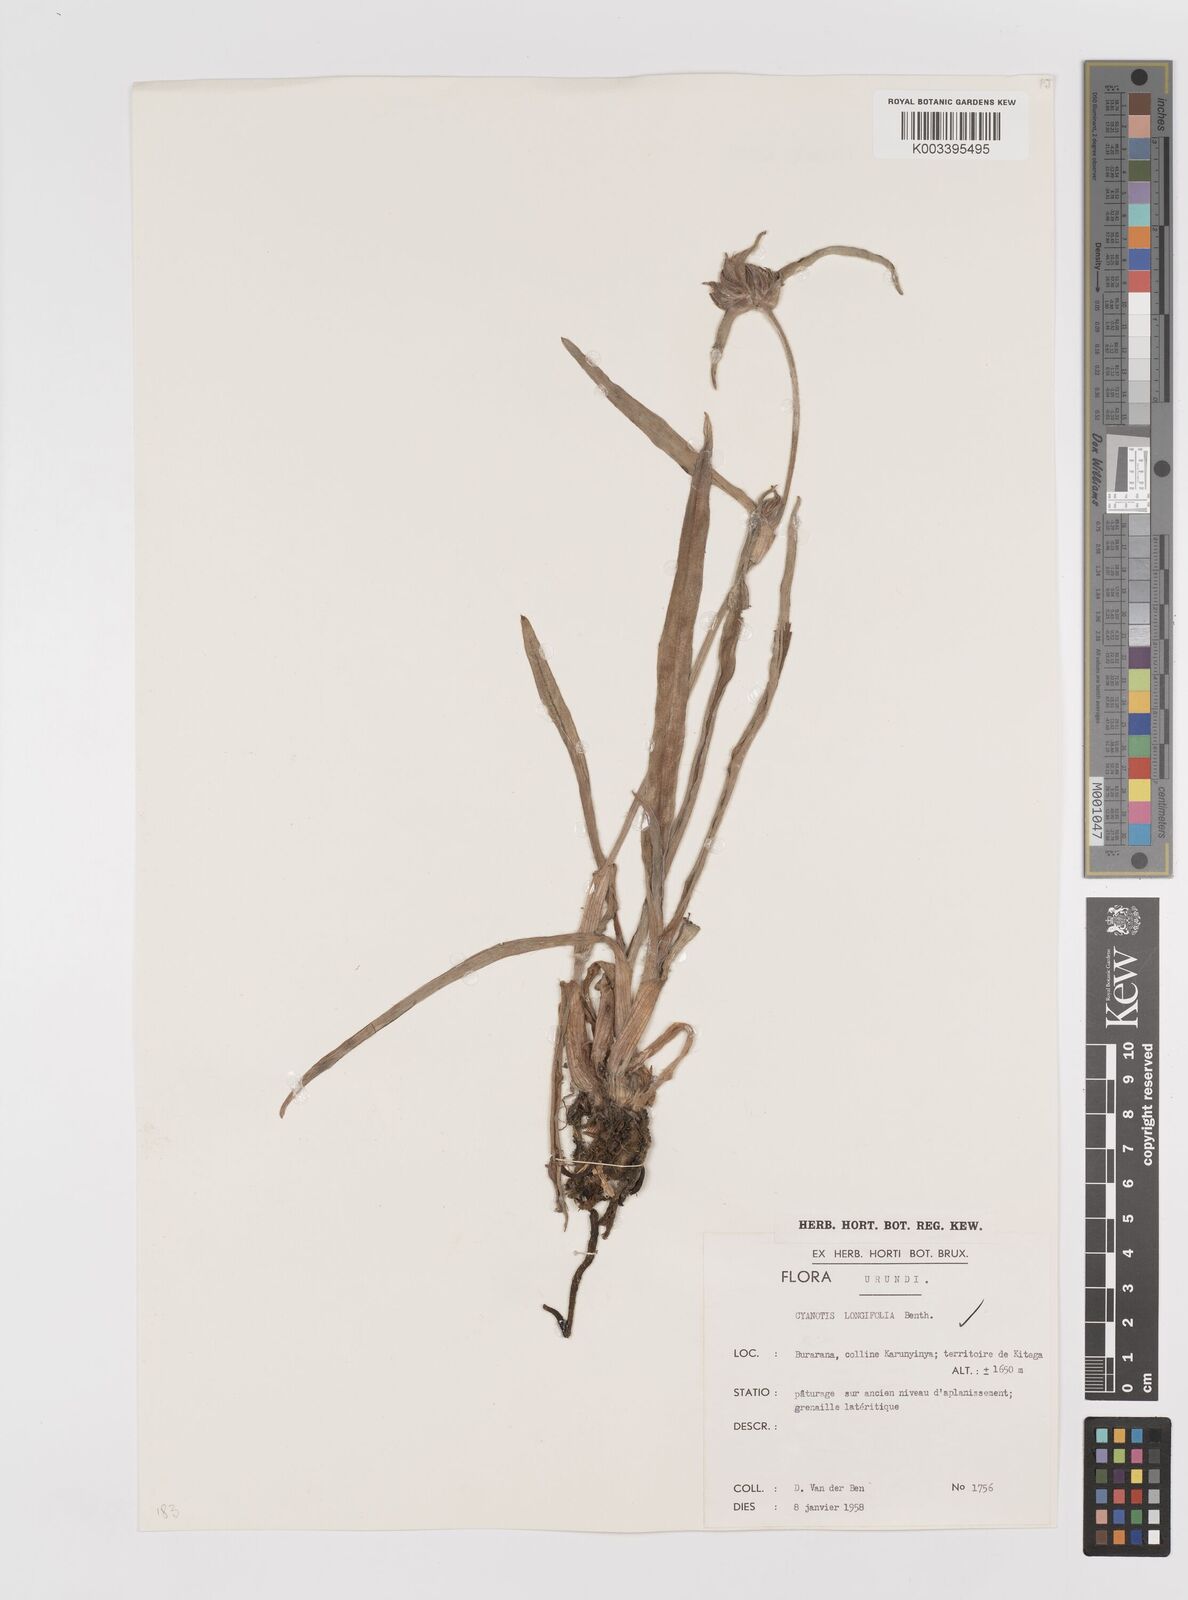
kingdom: Plantae
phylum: Tracheophyta
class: Liliopsida
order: Commelinales
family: Commelinaceae
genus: Cyanotis
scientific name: Cyanotis longifolia
